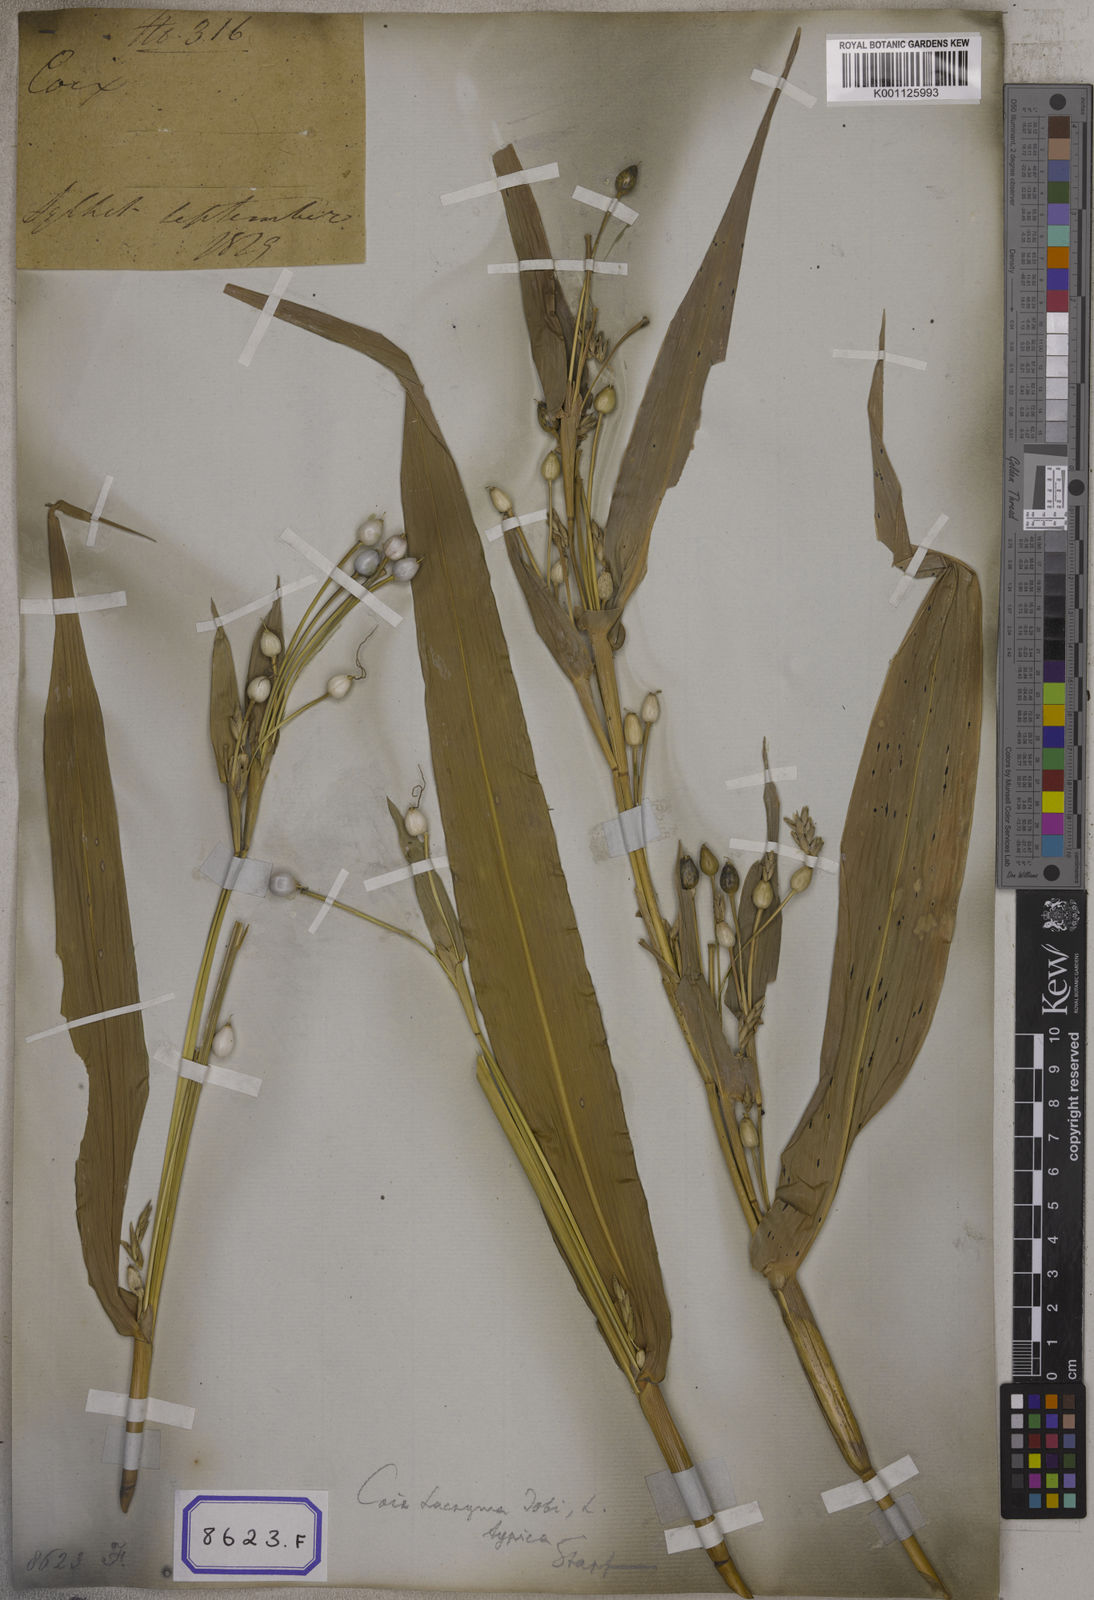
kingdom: Plantae
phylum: Tracheophyta
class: Liliopsida
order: Poales
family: Poaceae
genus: Coix
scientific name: Coix lacryma-jobi
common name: Job's tears
